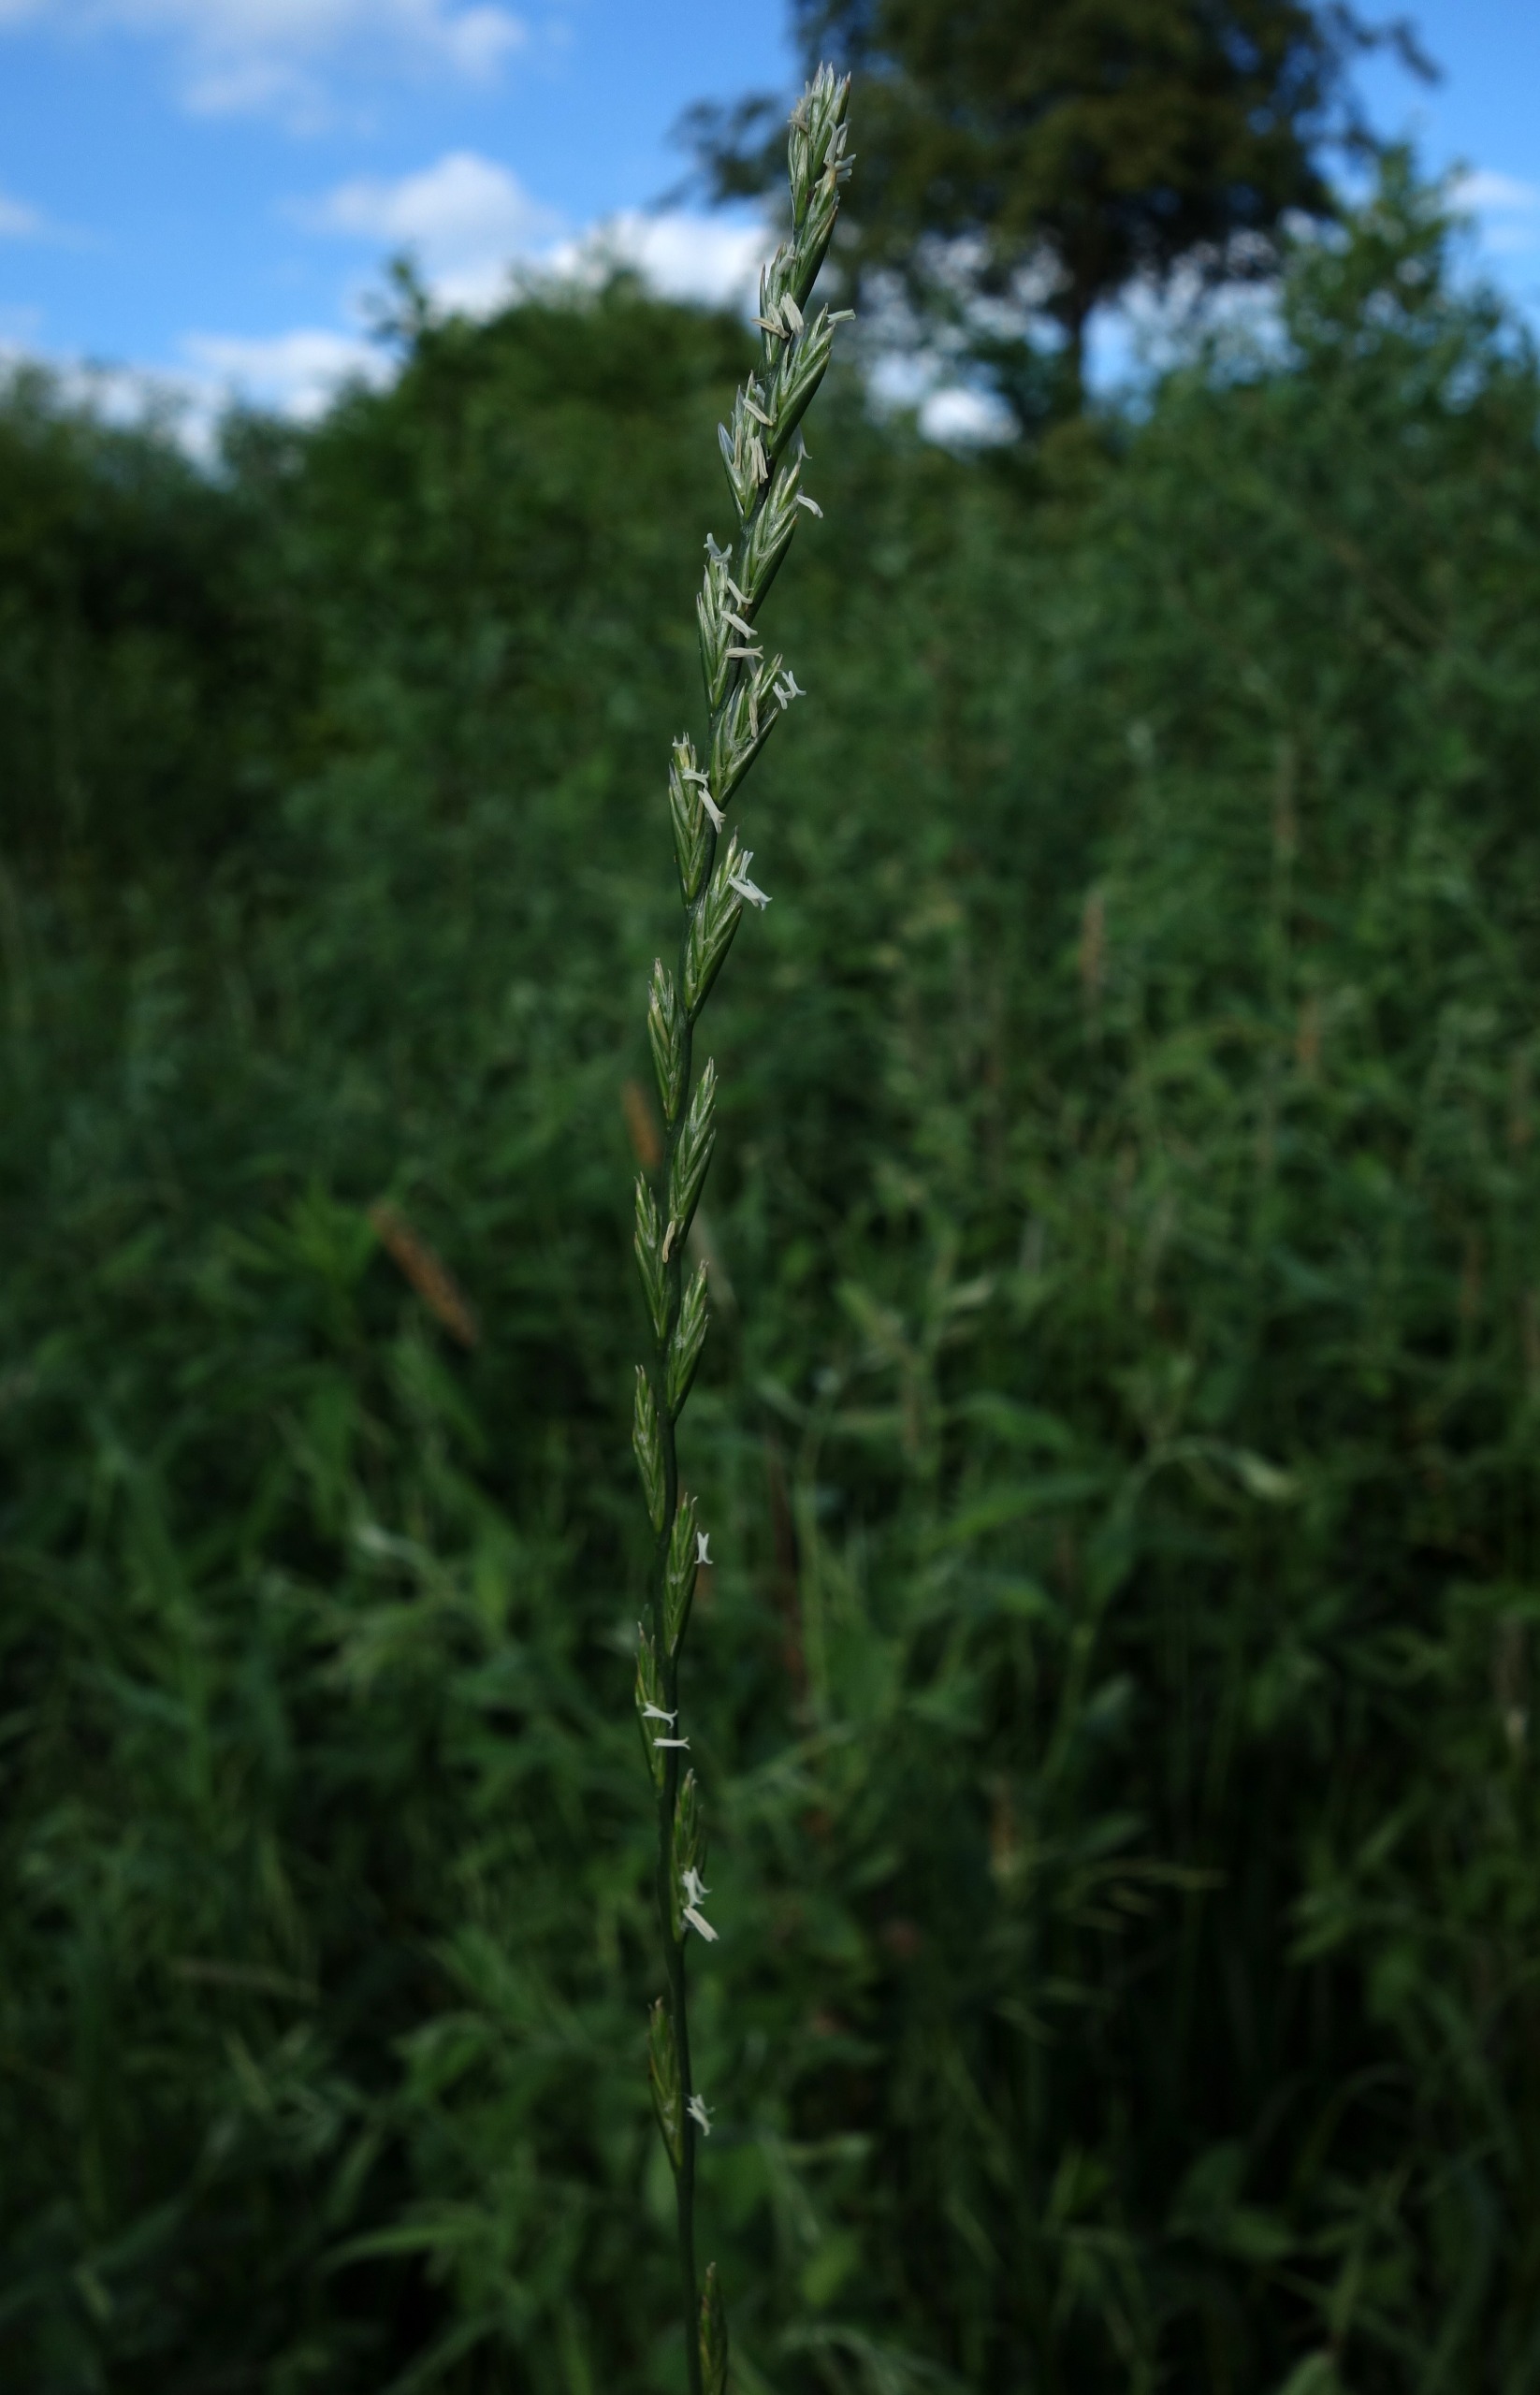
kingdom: Plantae
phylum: Tracheophyta
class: Liliopsida
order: Poales
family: Poaceae
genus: Lolium
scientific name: Lolium perenne
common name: Almindelig rajgræs
